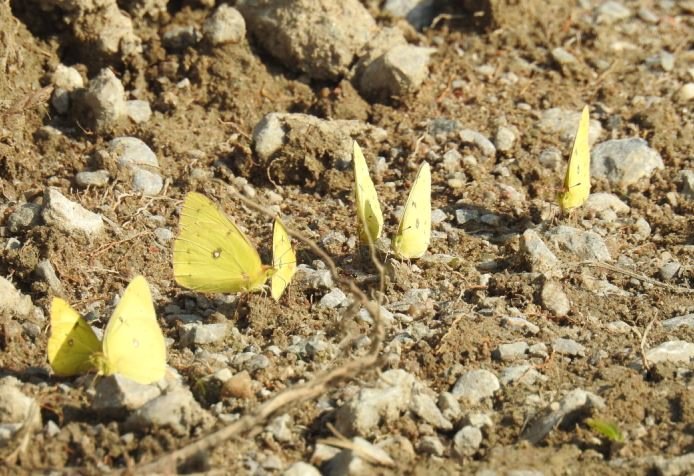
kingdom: Animalia
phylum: Arthropoda
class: Insecta
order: Lepidoptera
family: Pieridae
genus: Colias
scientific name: Colias philodice
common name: Clouded Sulphur
